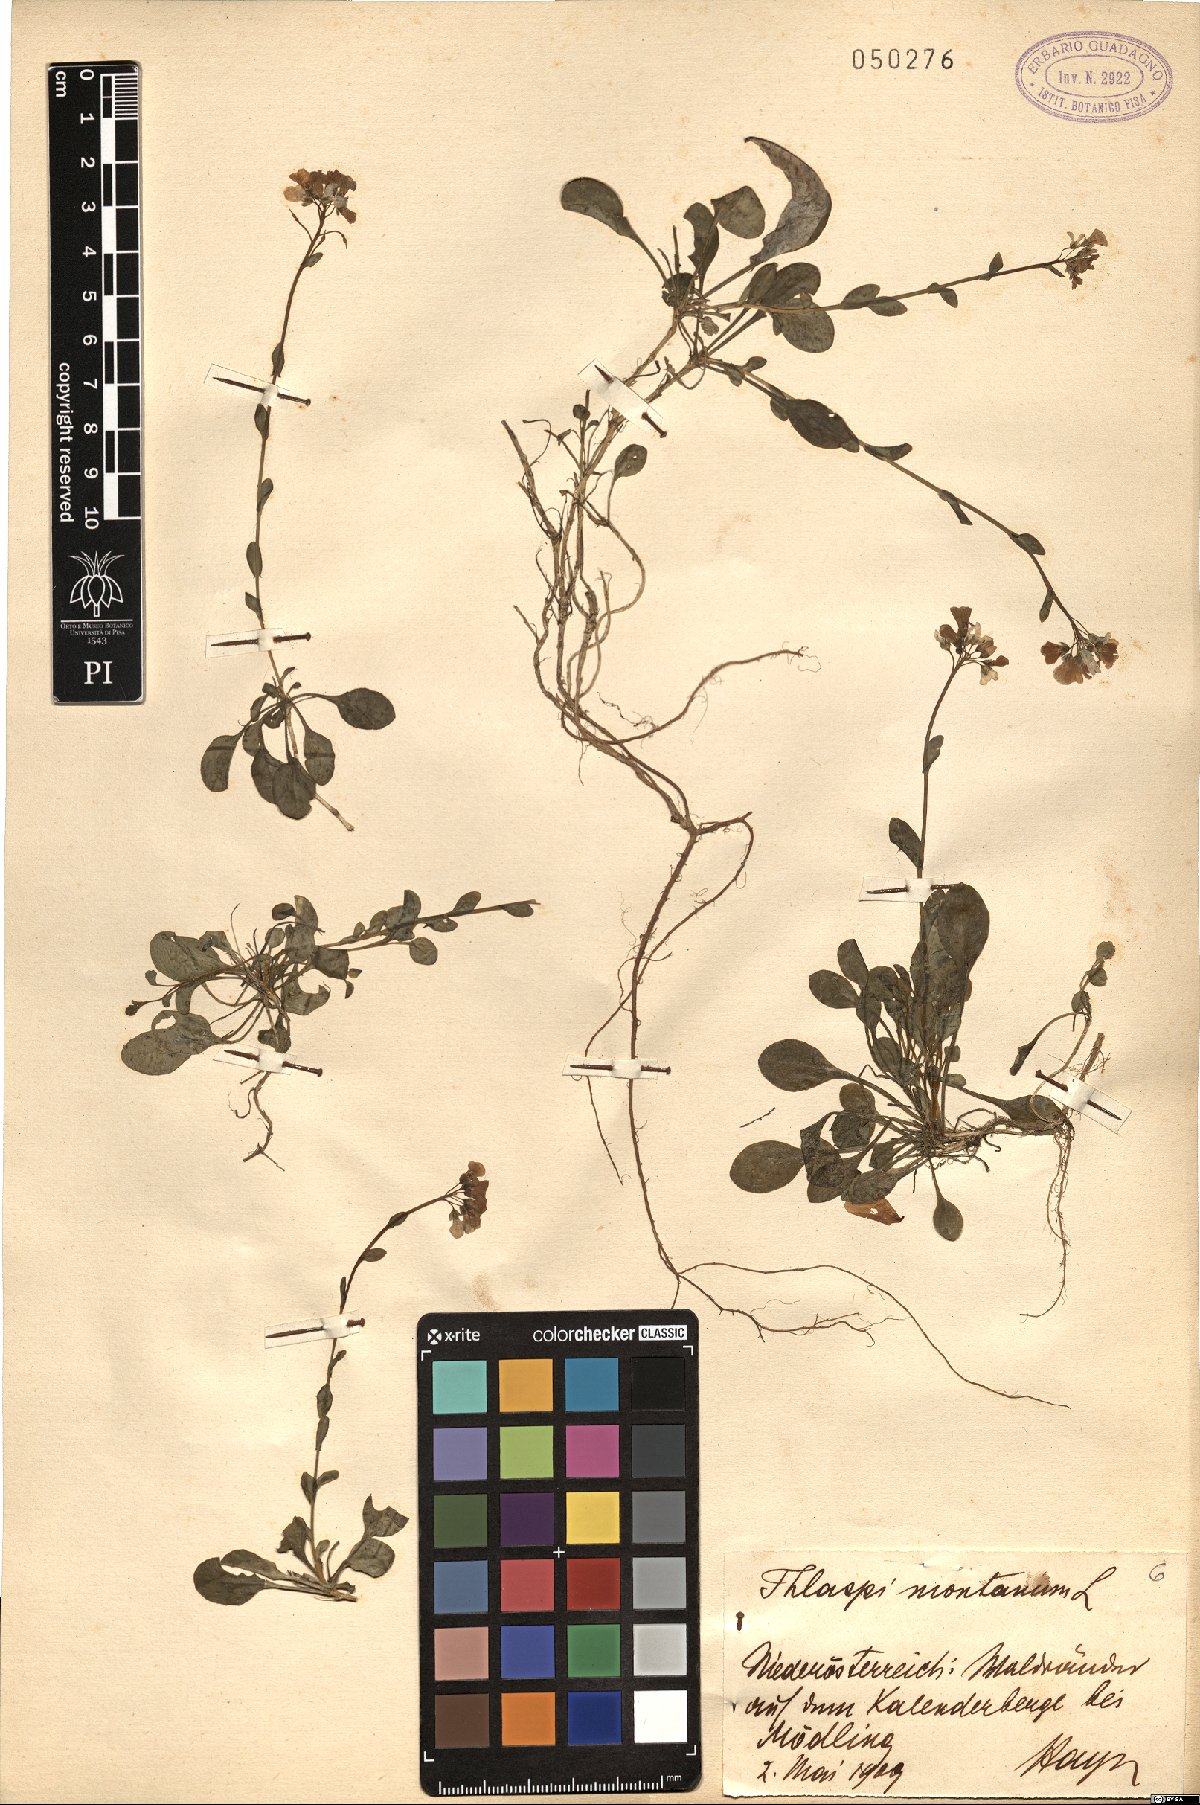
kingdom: Plantae
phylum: Tracheophyta
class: Magnoliopsida
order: Brassicales
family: Brassicaceae
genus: Noccaea
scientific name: Noccaea montana
